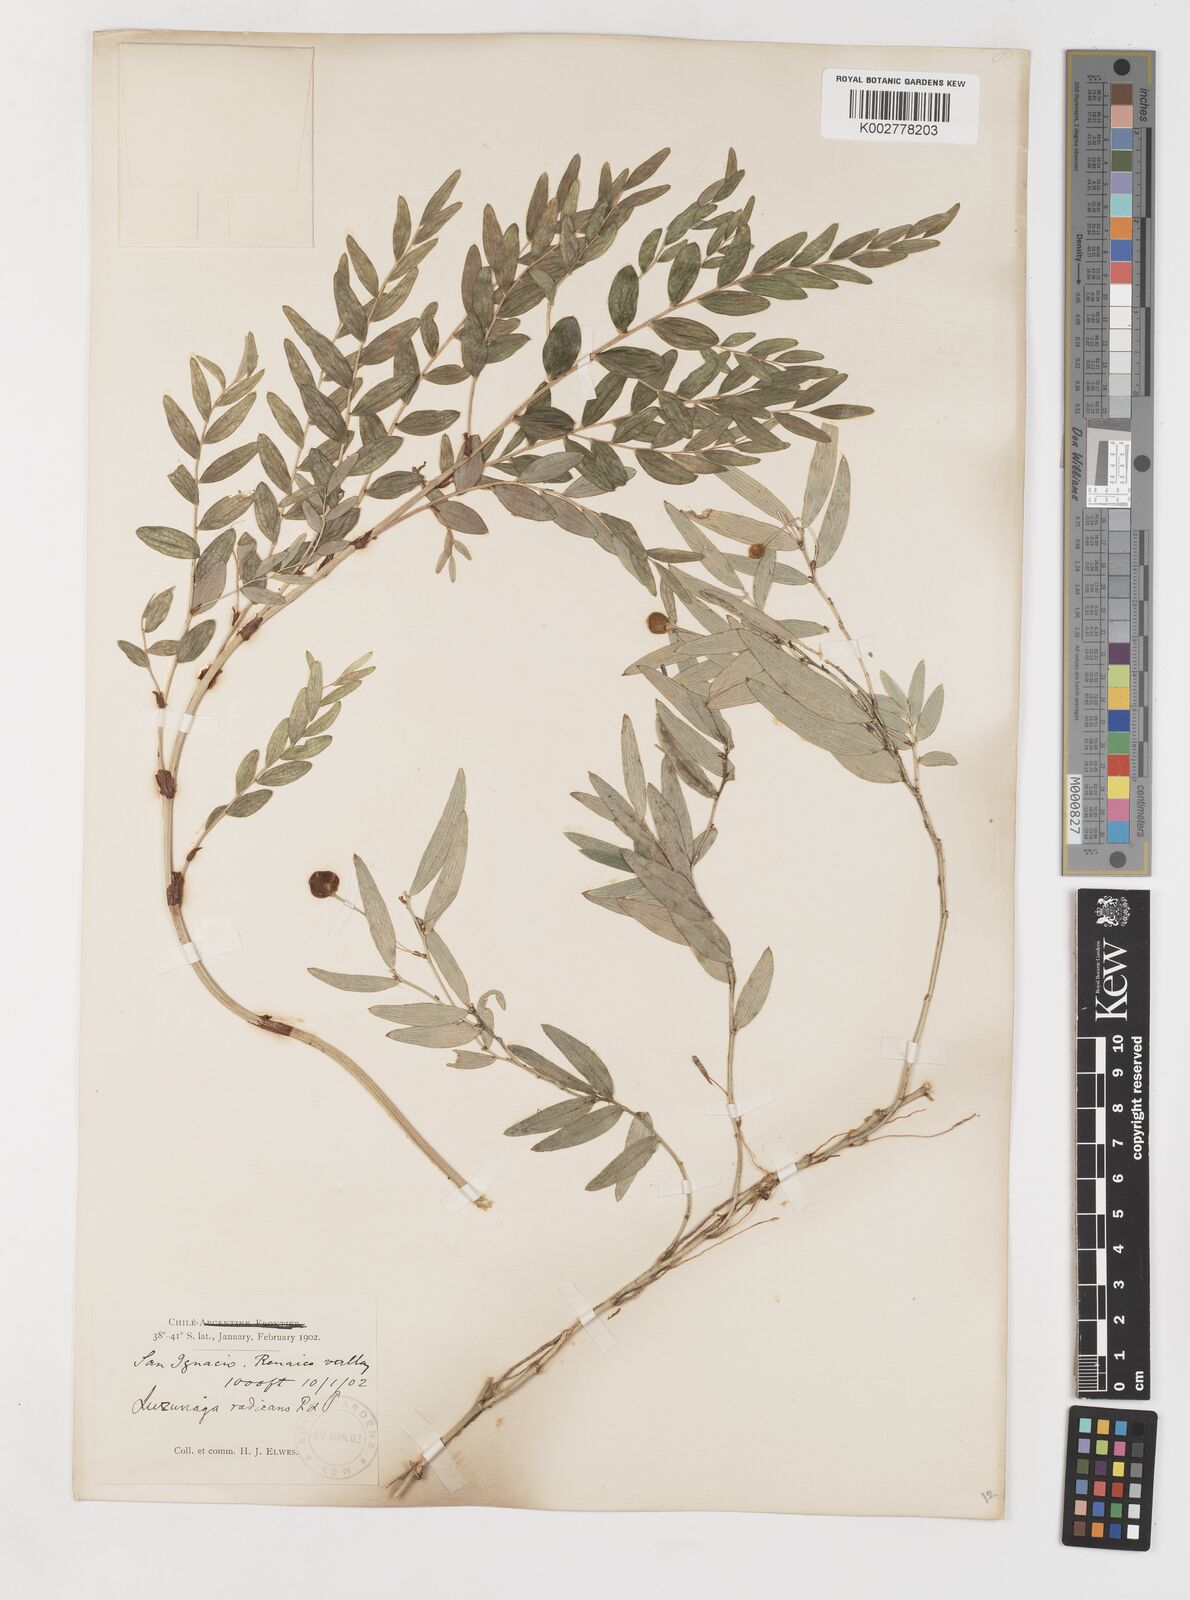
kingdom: Plantae
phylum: Tracheophyta
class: Liliopsida
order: Liliales
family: Alstroemeriaceae
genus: Luzuriaga
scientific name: Luzuriaga radicans
